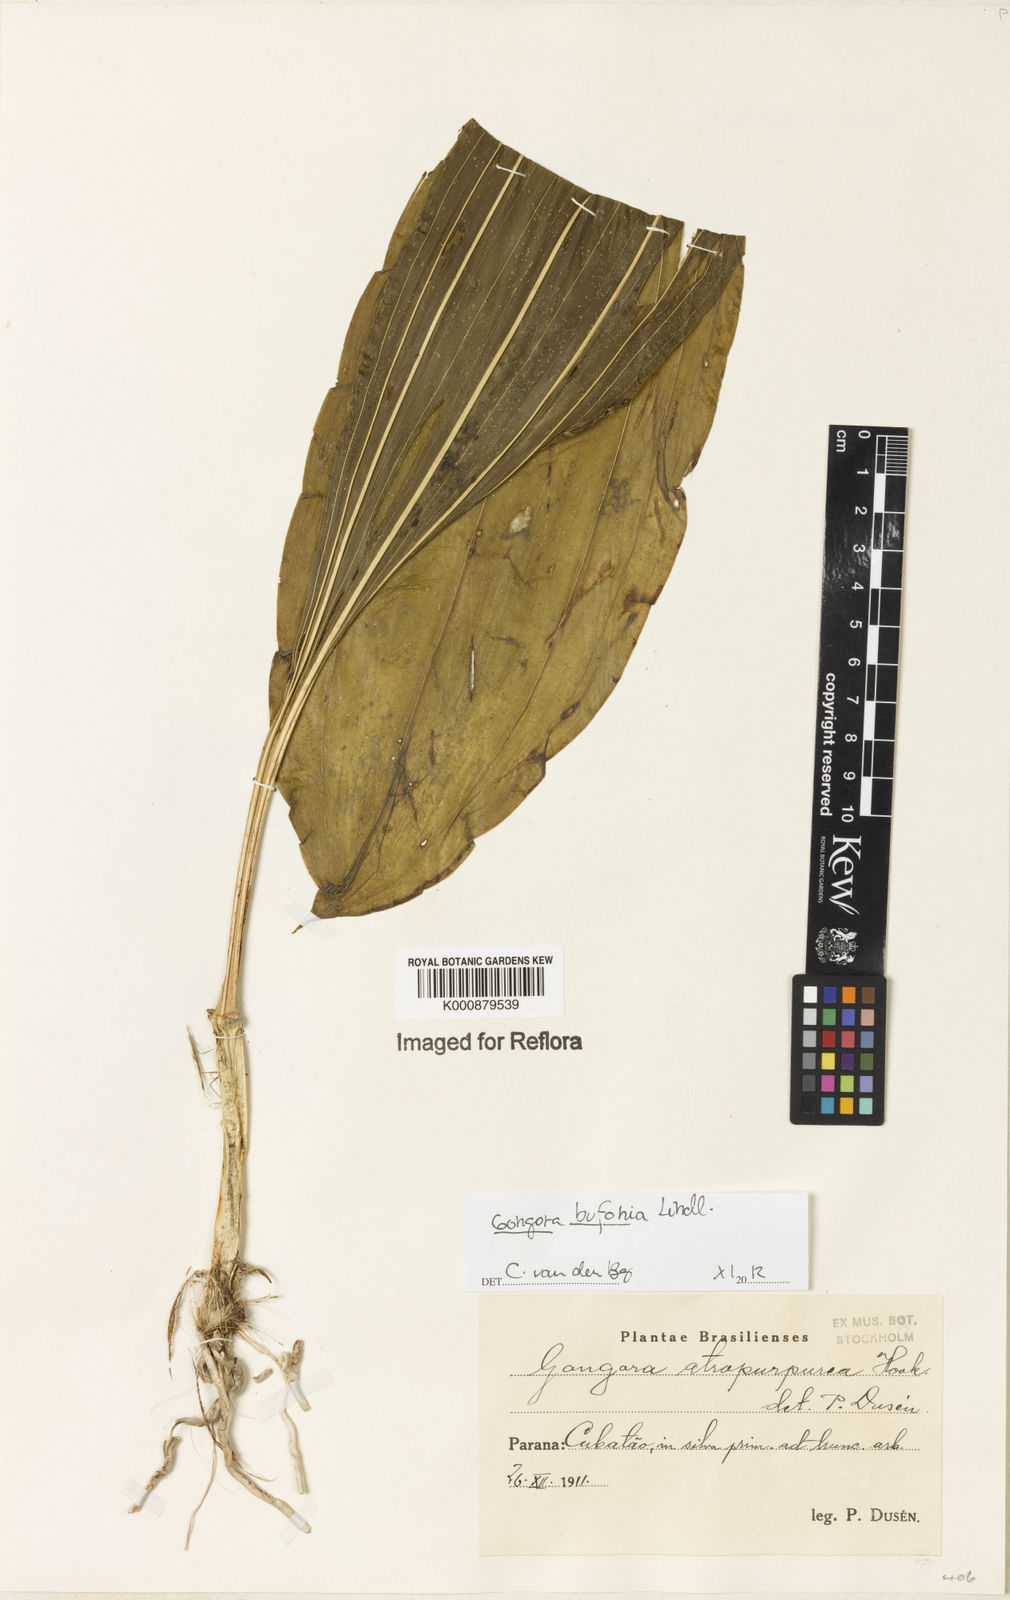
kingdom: Plantae
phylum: Tracheophyta
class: Liliopsida
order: Asparagales
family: Orchidaceae
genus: Gongora
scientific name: Gongora bufonia
